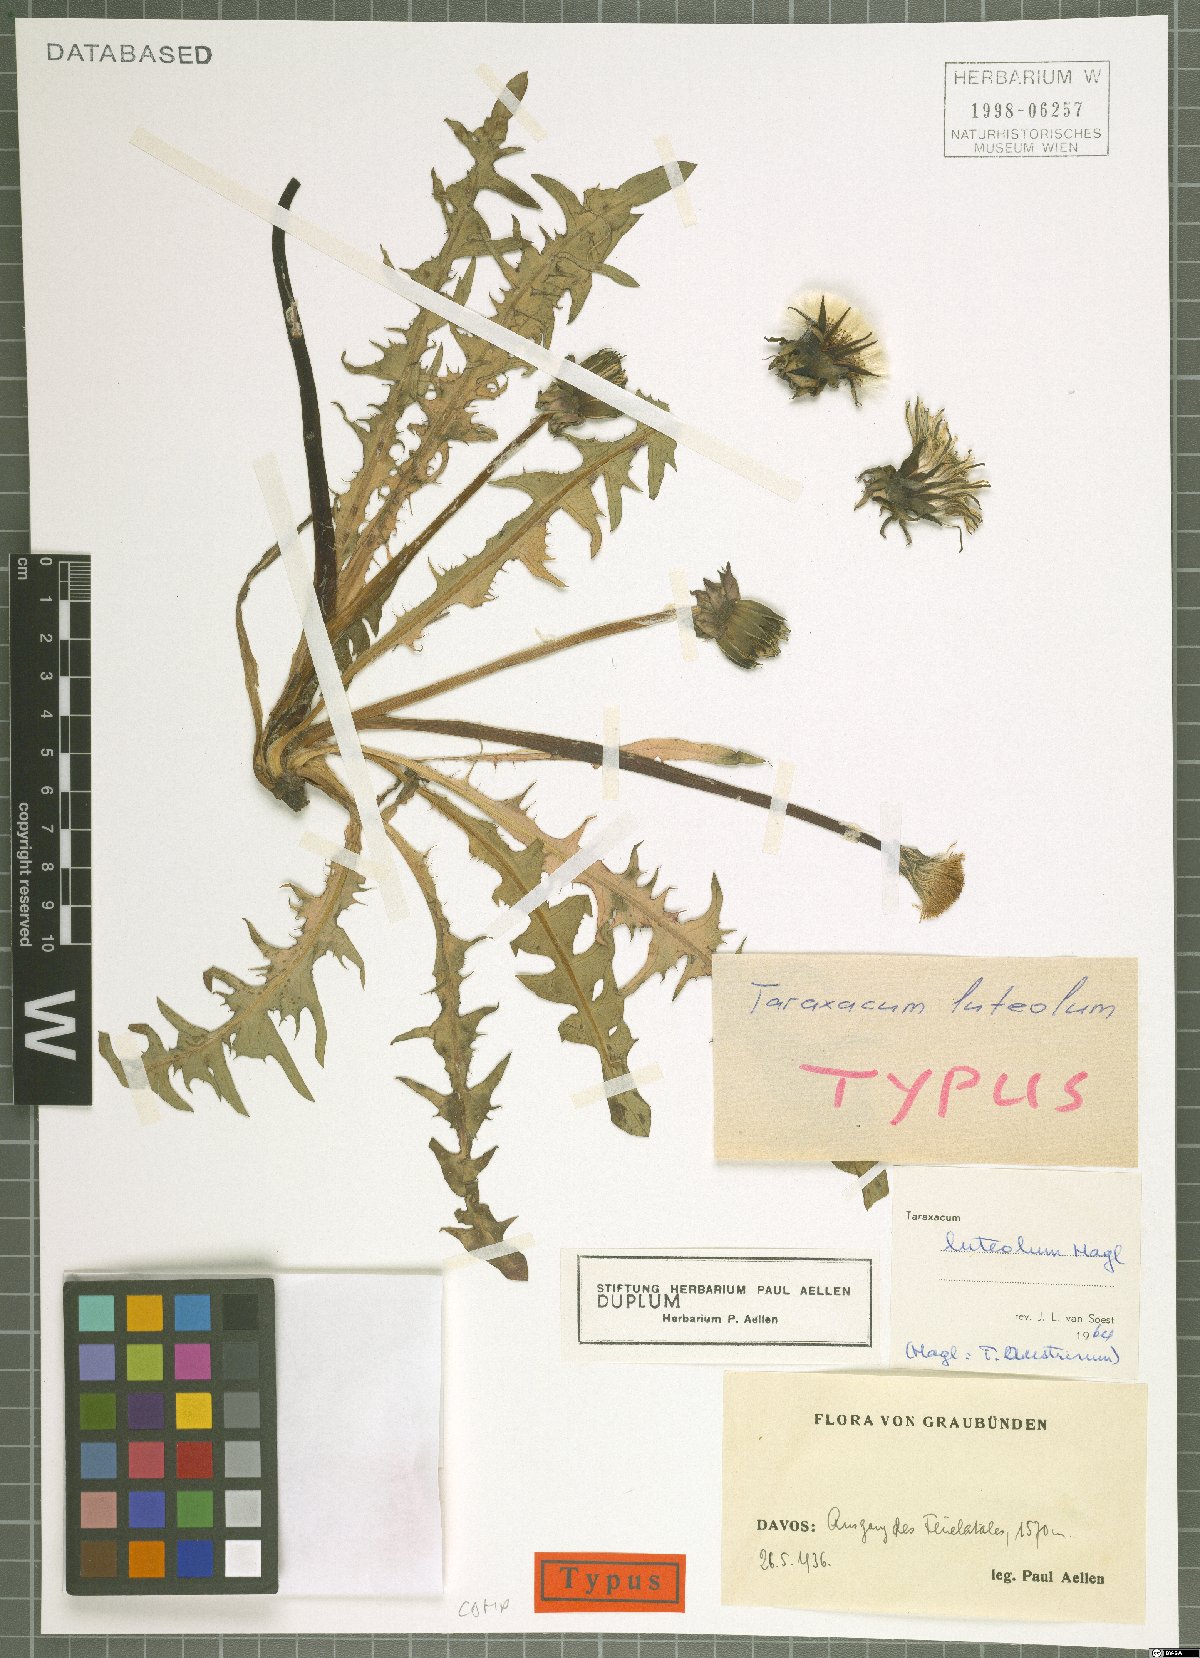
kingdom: Plantae
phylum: Tracheophyta
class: Magnoliopsida
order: Asterales
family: Asteraceae
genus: Taraxacum
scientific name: Taraxacum luteolum
